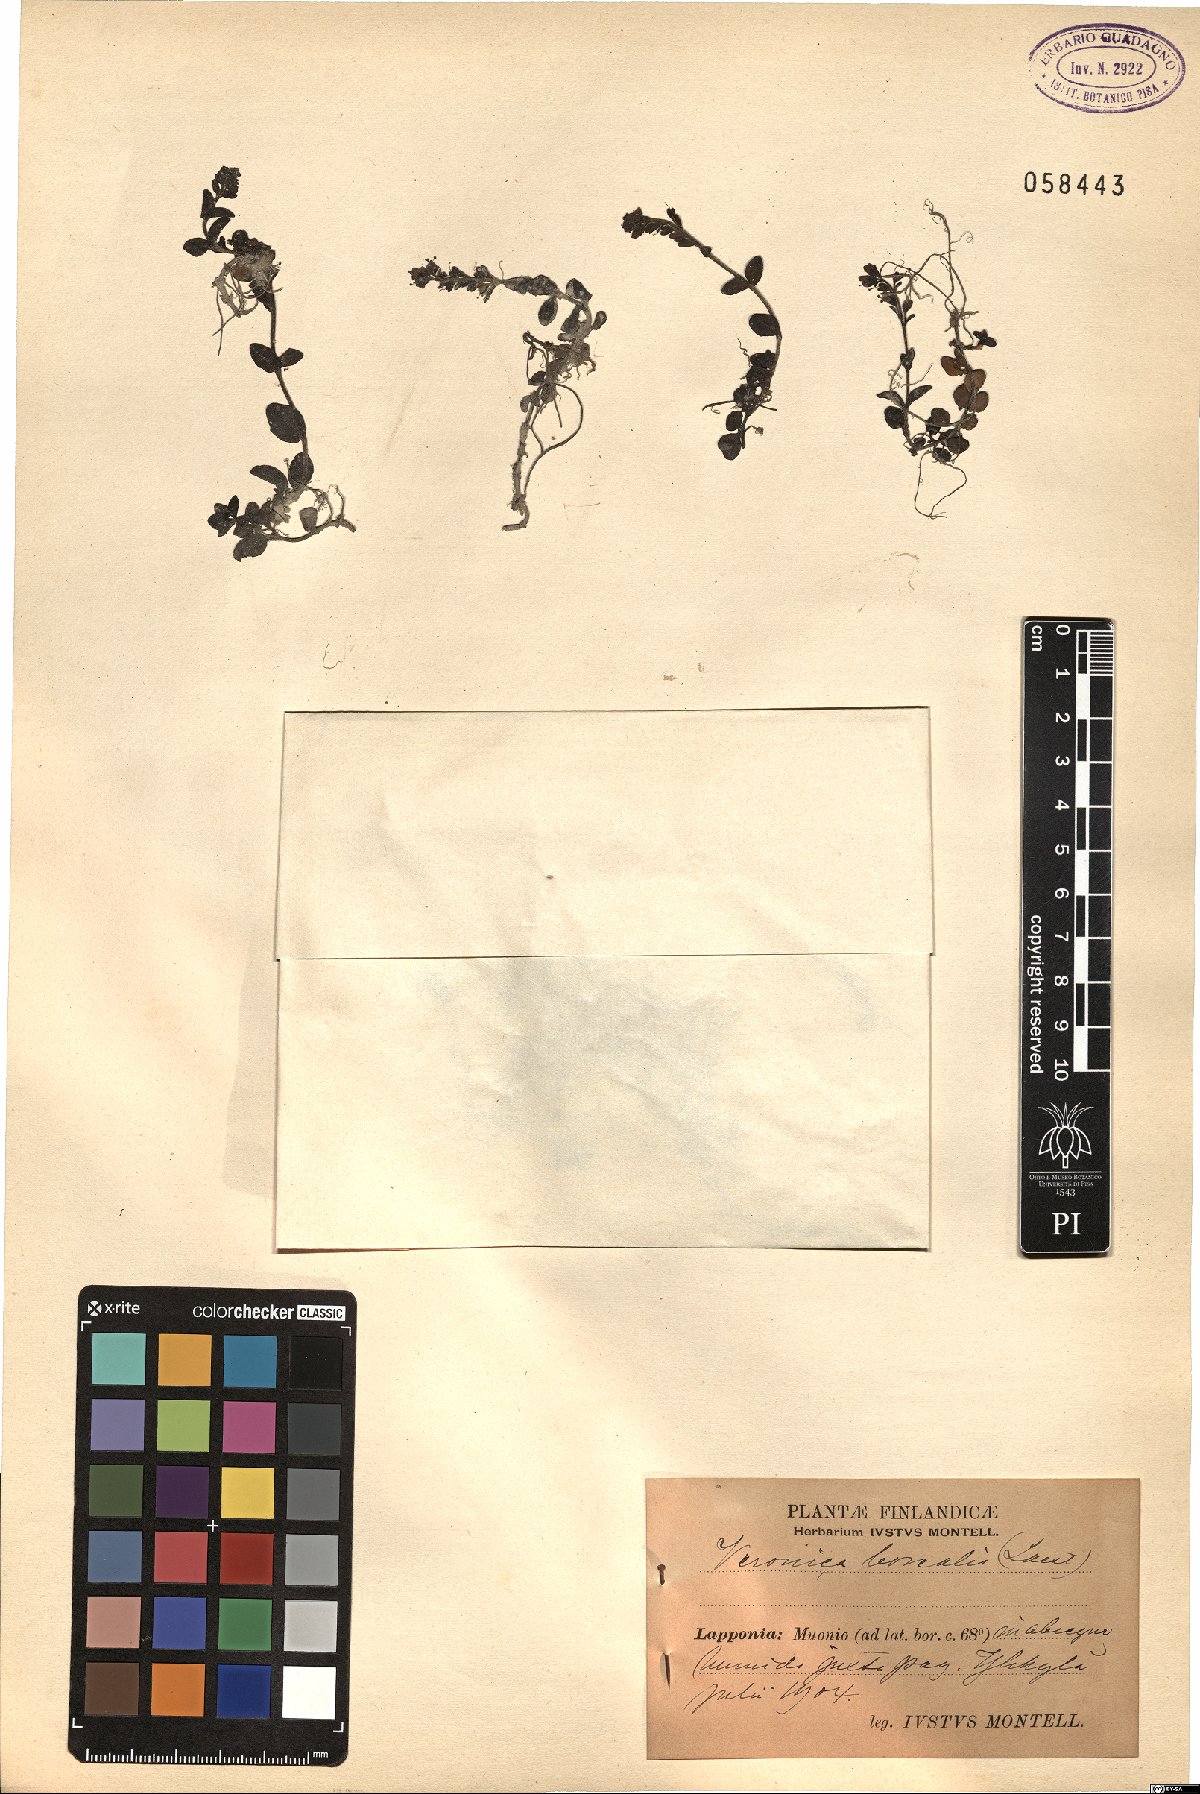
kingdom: Plantae
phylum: Tracheophyta
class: Magnoliopsida
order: Lamiales
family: Plantaginaceae
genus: Veronica
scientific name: Veronica serpyllifolia
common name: Thyme-leaved speedwell
